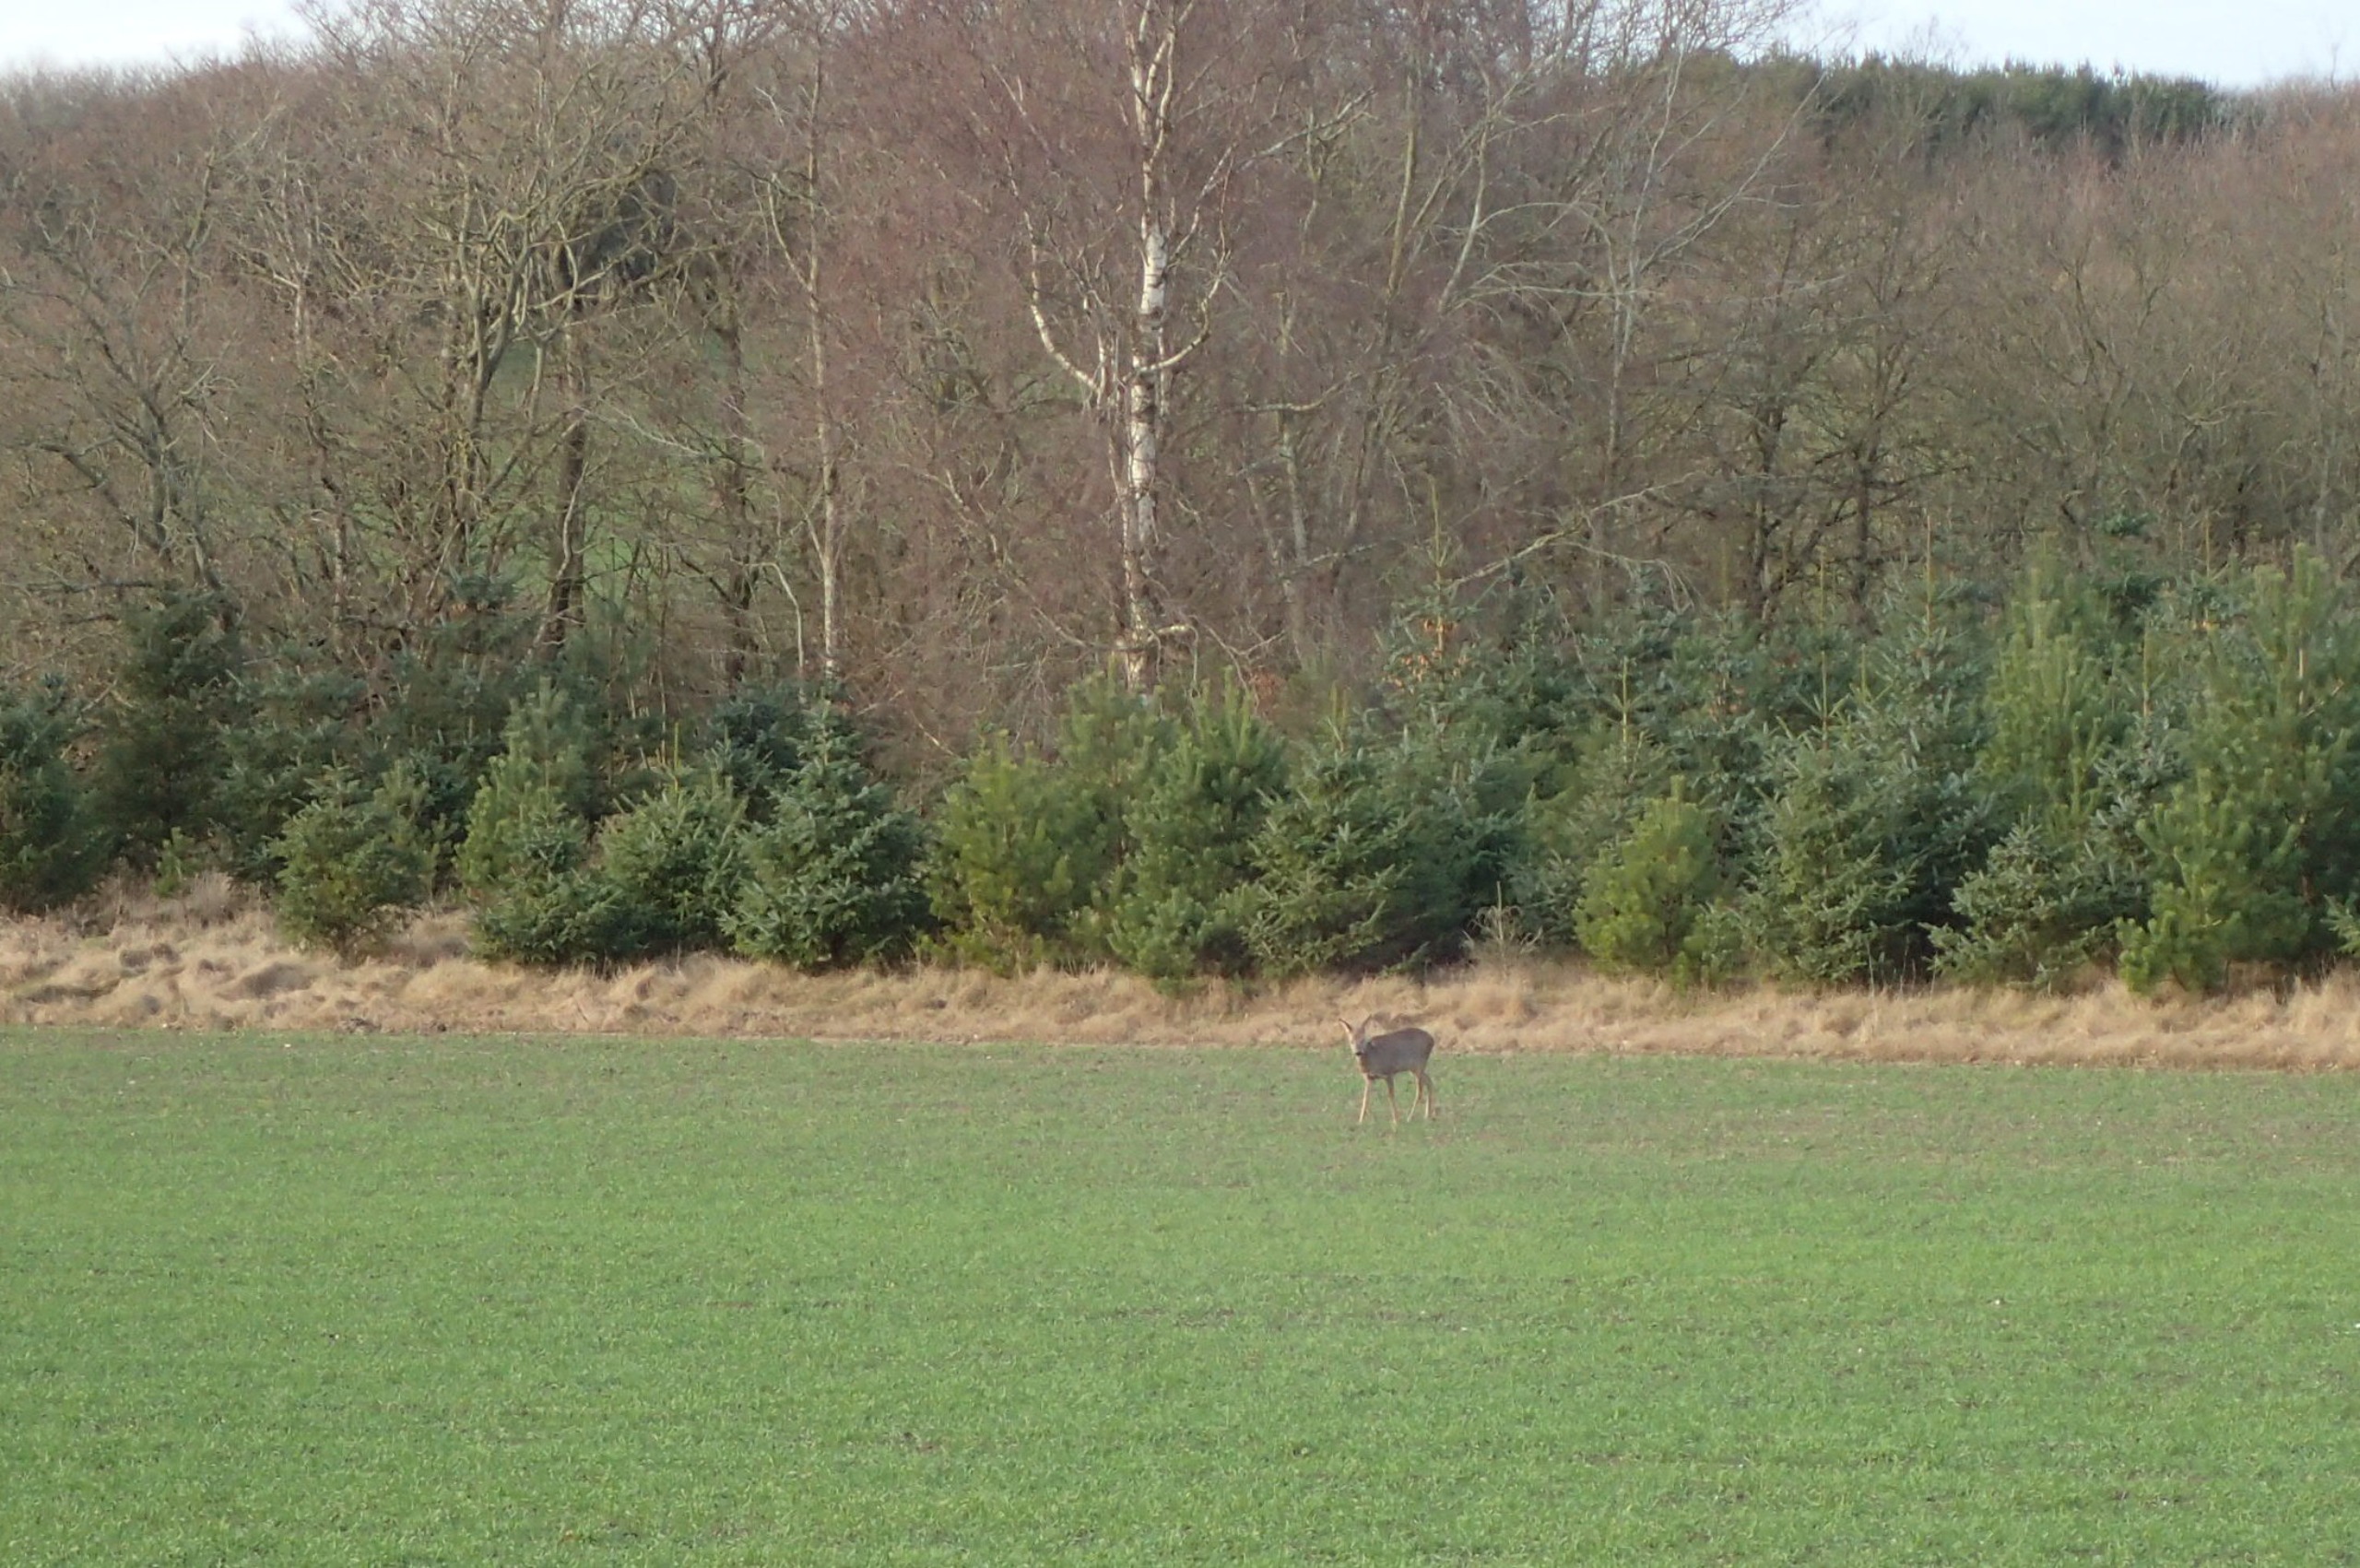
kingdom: Animalia
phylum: Chordata
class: Mammalia
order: Artiodactyla
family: Cervidae
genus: Capreolus
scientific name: Capreolus capreolus
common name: Rådyr
